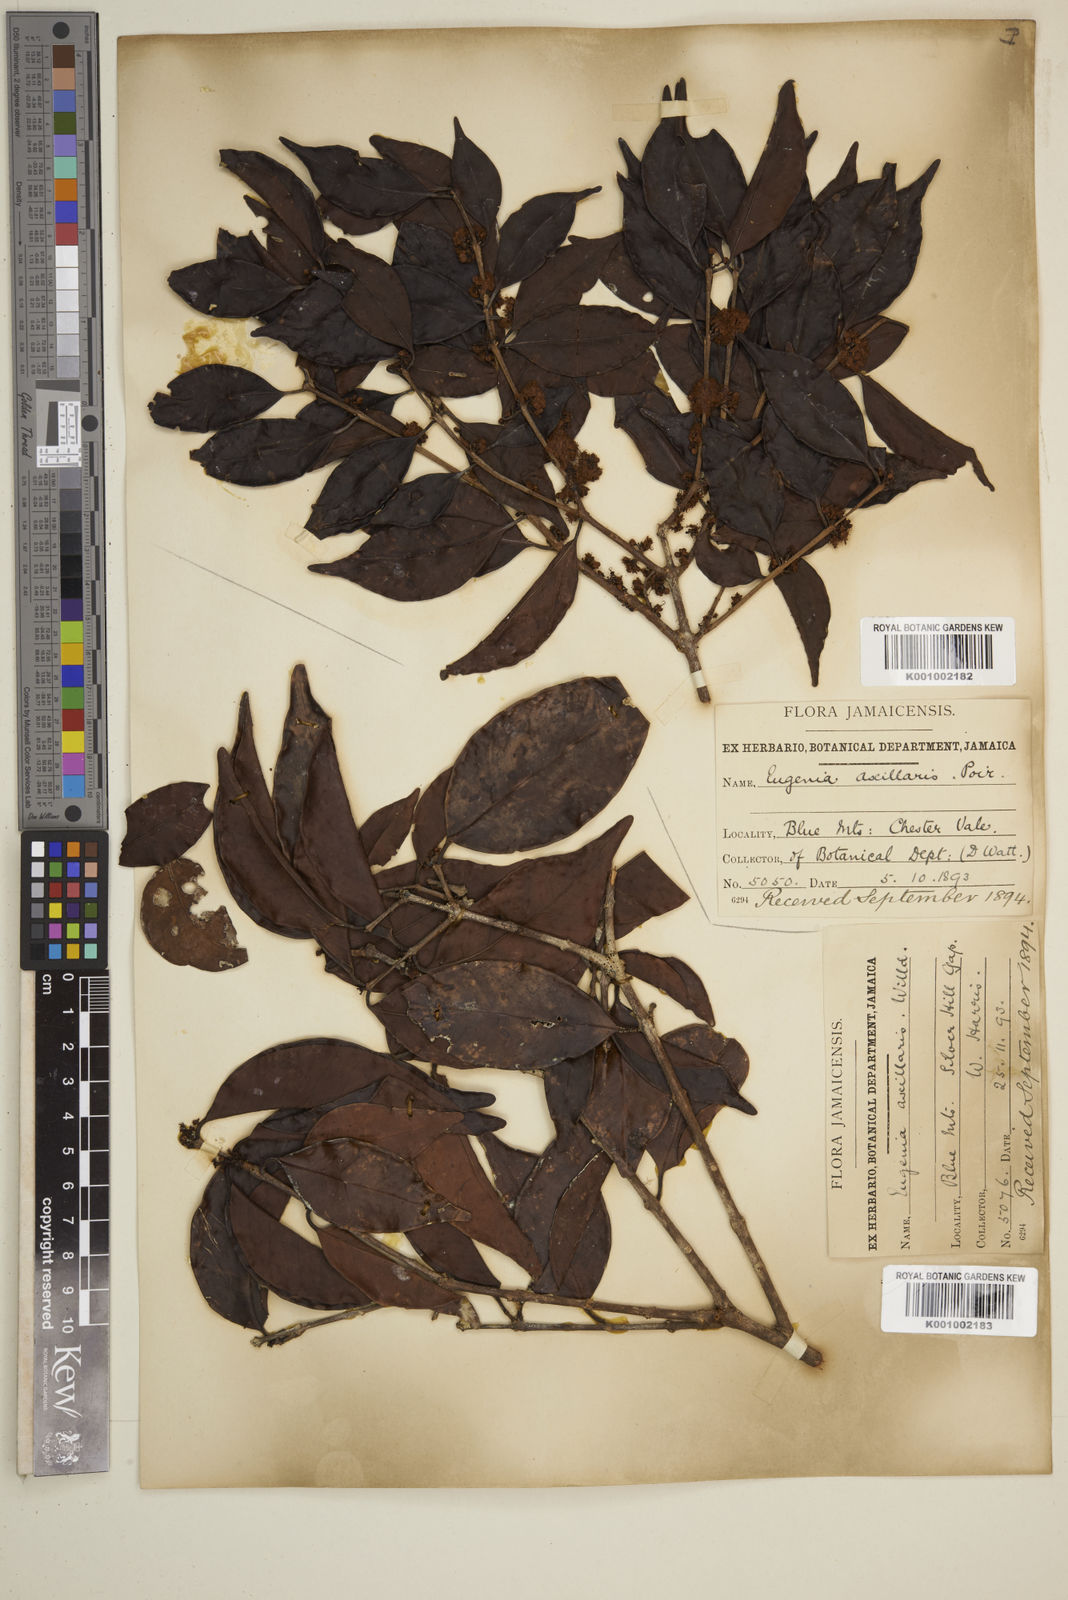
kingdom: Plantae
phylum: Tracheophyta
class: Magnoliopsida
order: Myrtales
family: Myrtaceae
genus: Eugenia
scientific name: Eugenia axillaris
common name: Choaky berry
